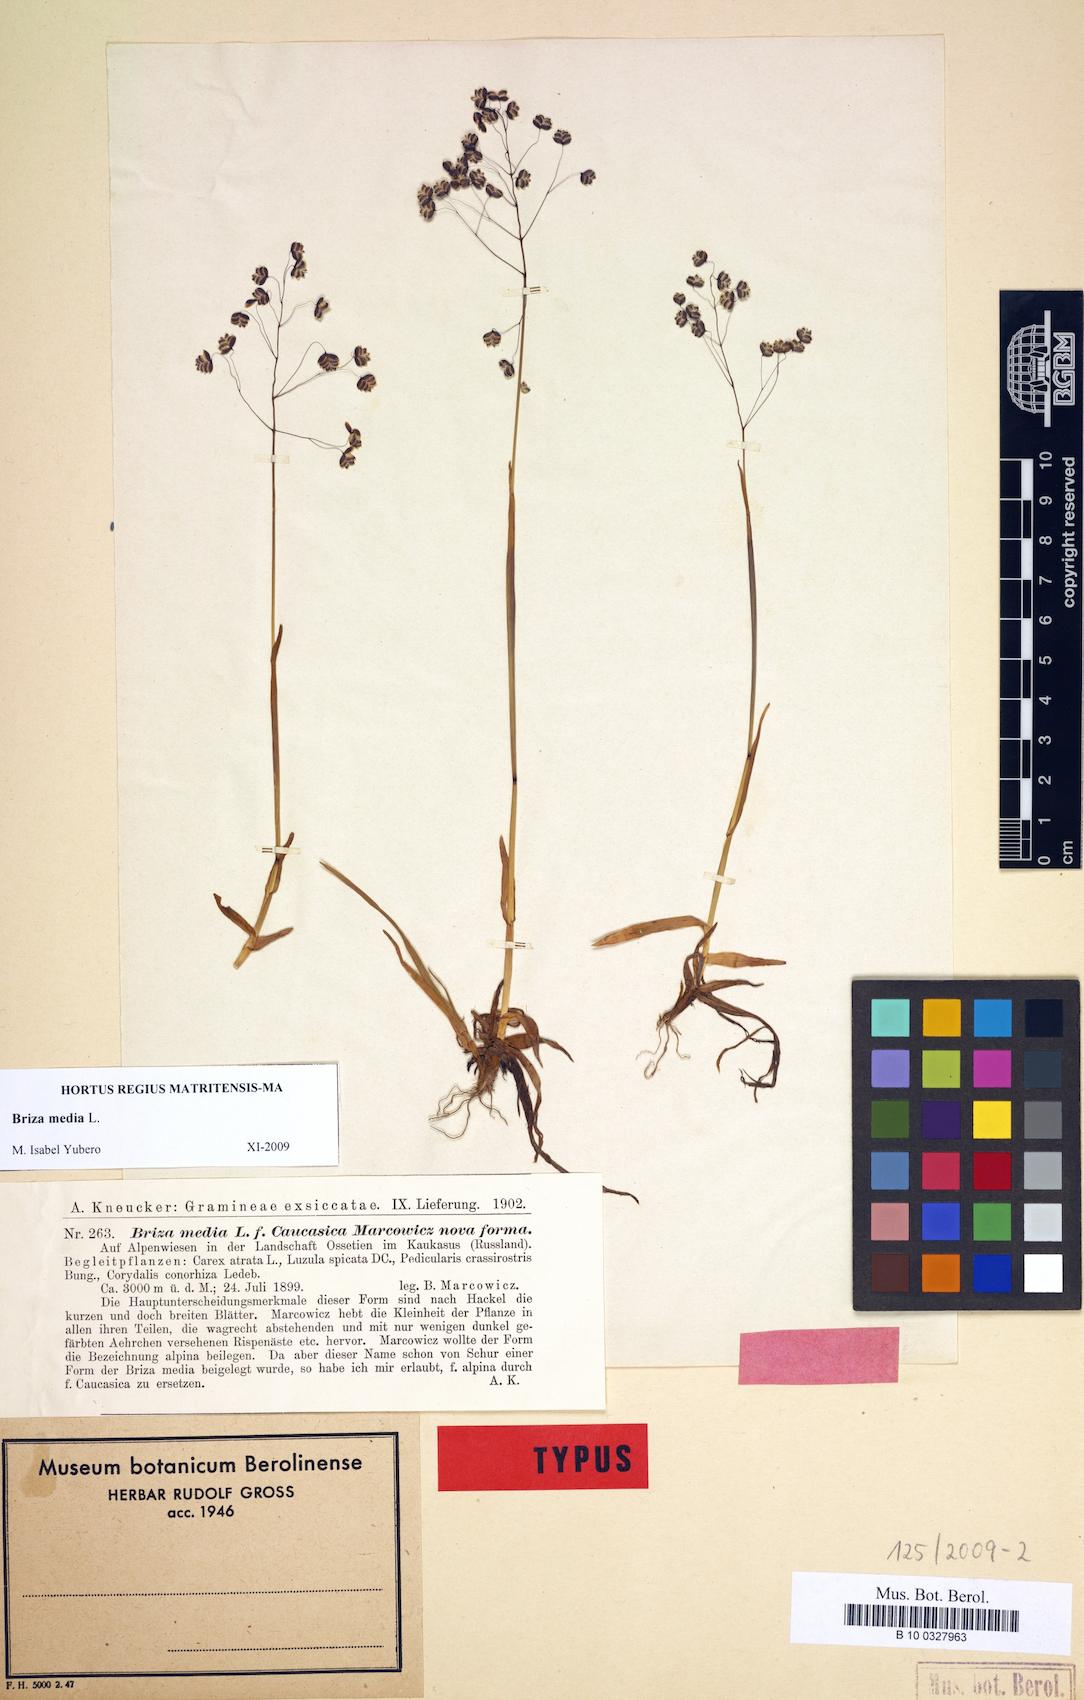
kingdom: Plantae
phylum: Tracheophyta
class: Liliopsida
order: Poales
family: Poaceae
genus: Briza
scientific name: Briza media
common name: Quaking grass
